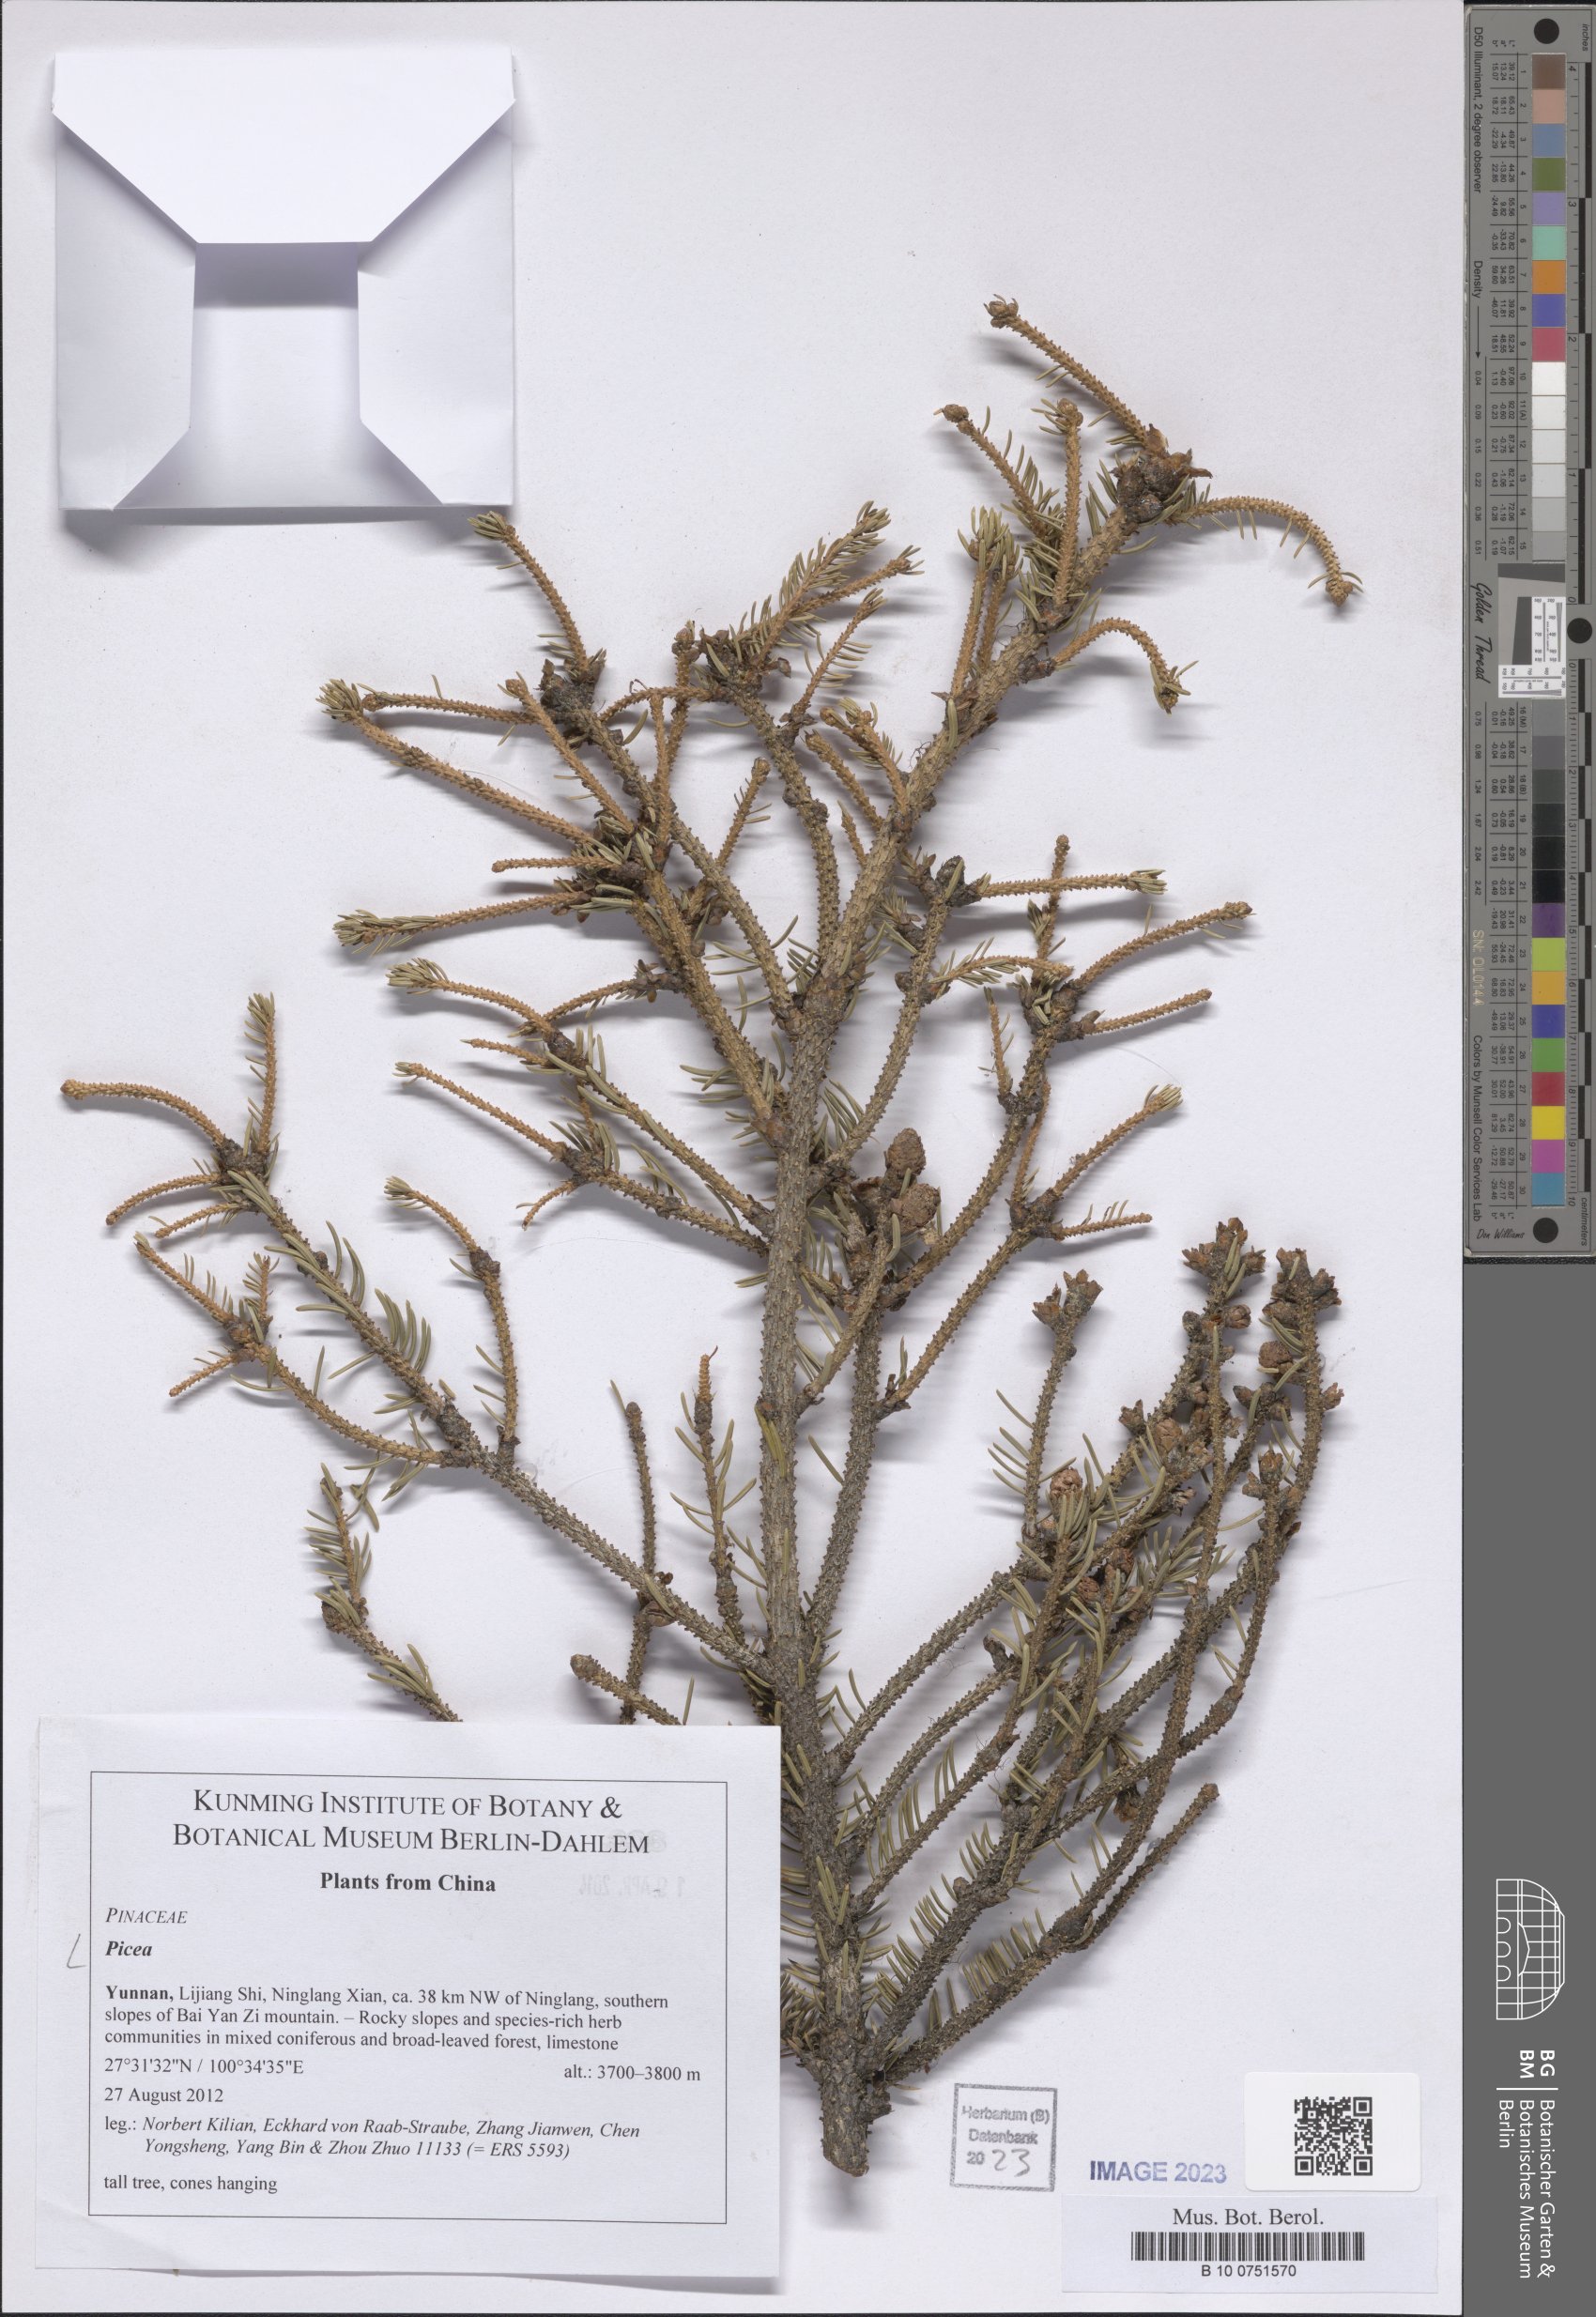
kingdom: Plantae
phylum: Tracheophyta
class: Pinopsida
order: Pinales
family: Pinaceae
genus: Picea
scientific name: Picea
